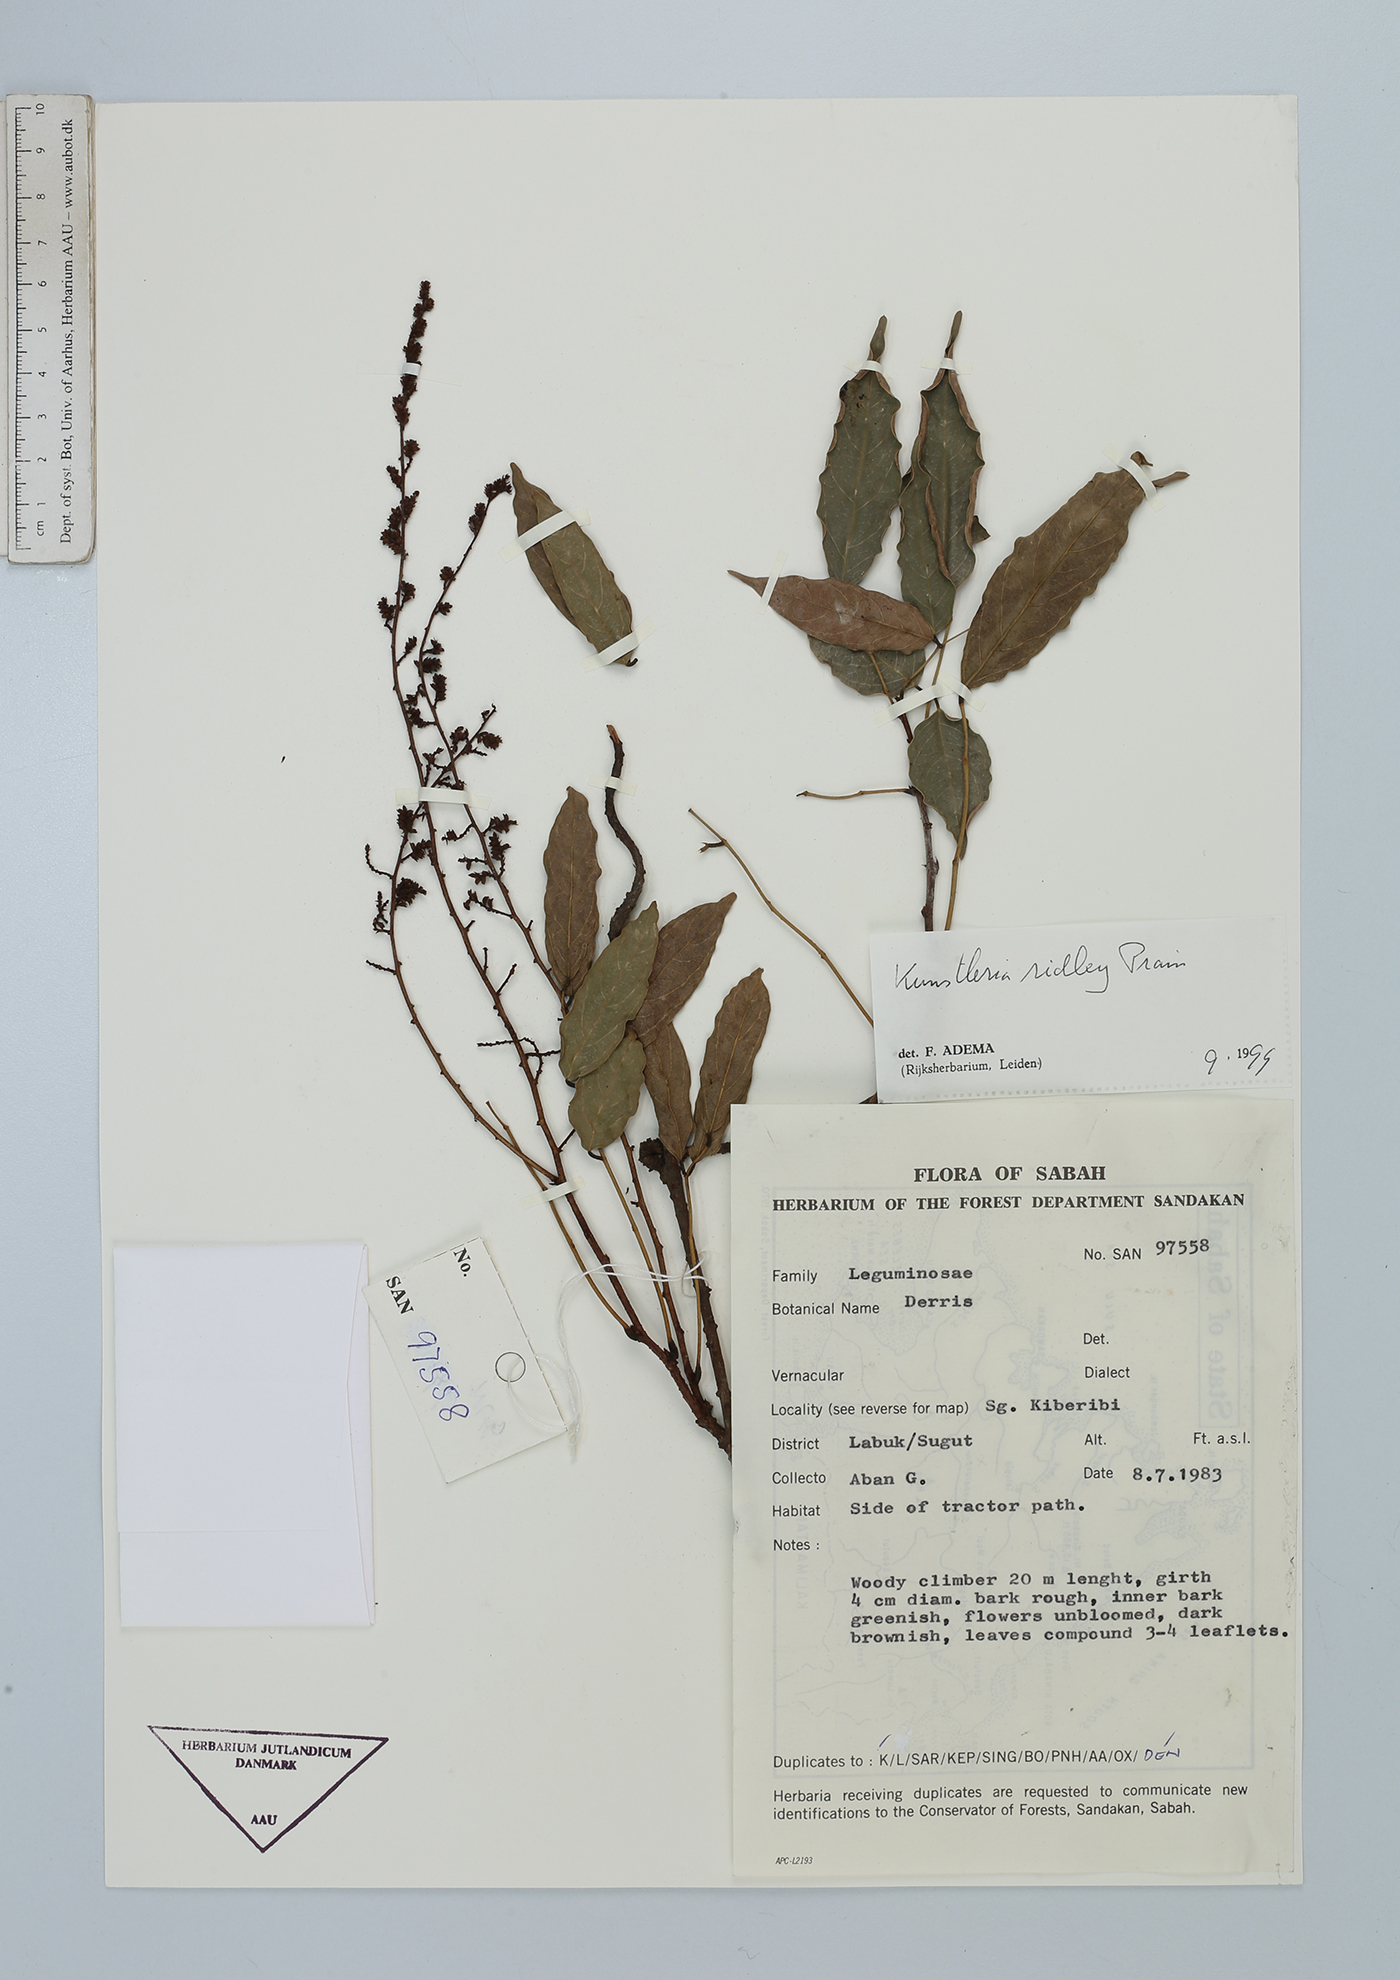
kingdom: Plantae
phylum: Tracheophyta
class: Magnoliopsida
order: Fabales
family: Fabaceae
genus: Kunstleria
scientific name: Kunstleria ridleyi
